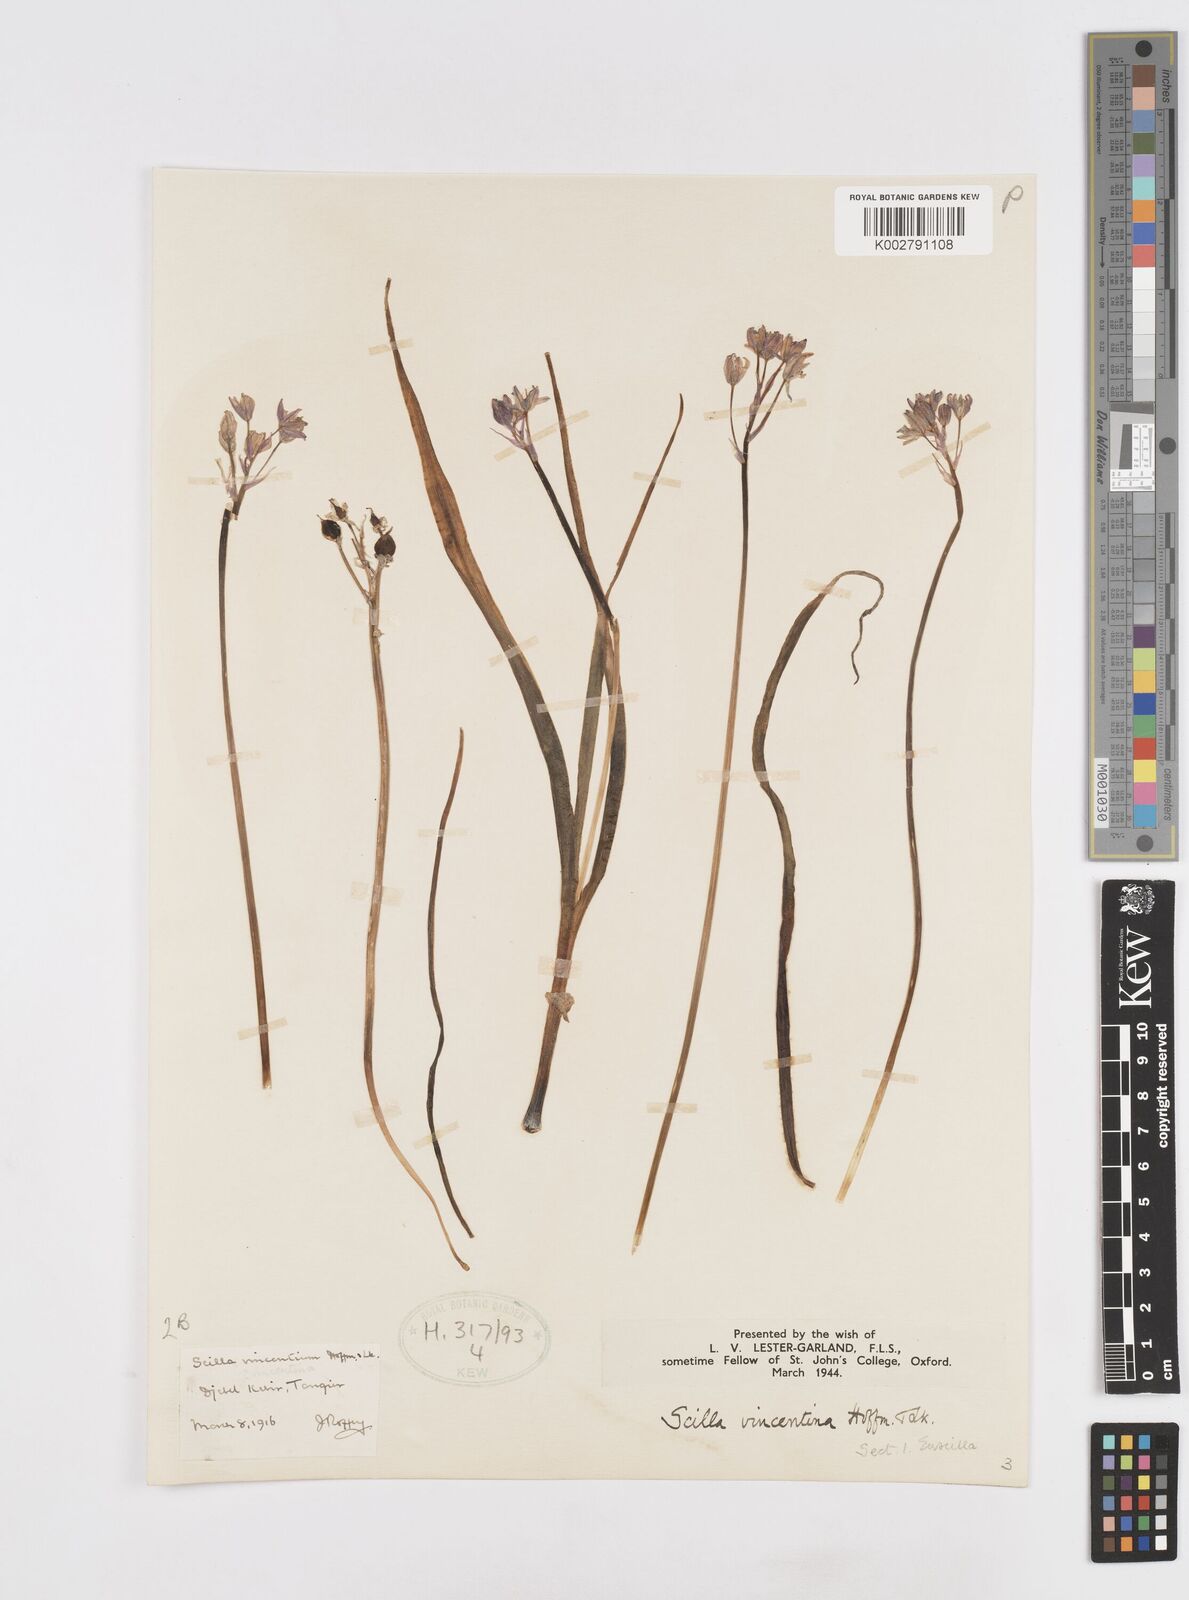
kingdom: Plantae
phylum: Tracheophyta
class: Liliopsida
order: Asparagales
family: Asparagaceae
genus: Hyacinthoides
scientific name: Hyacinthoides mauritanica
